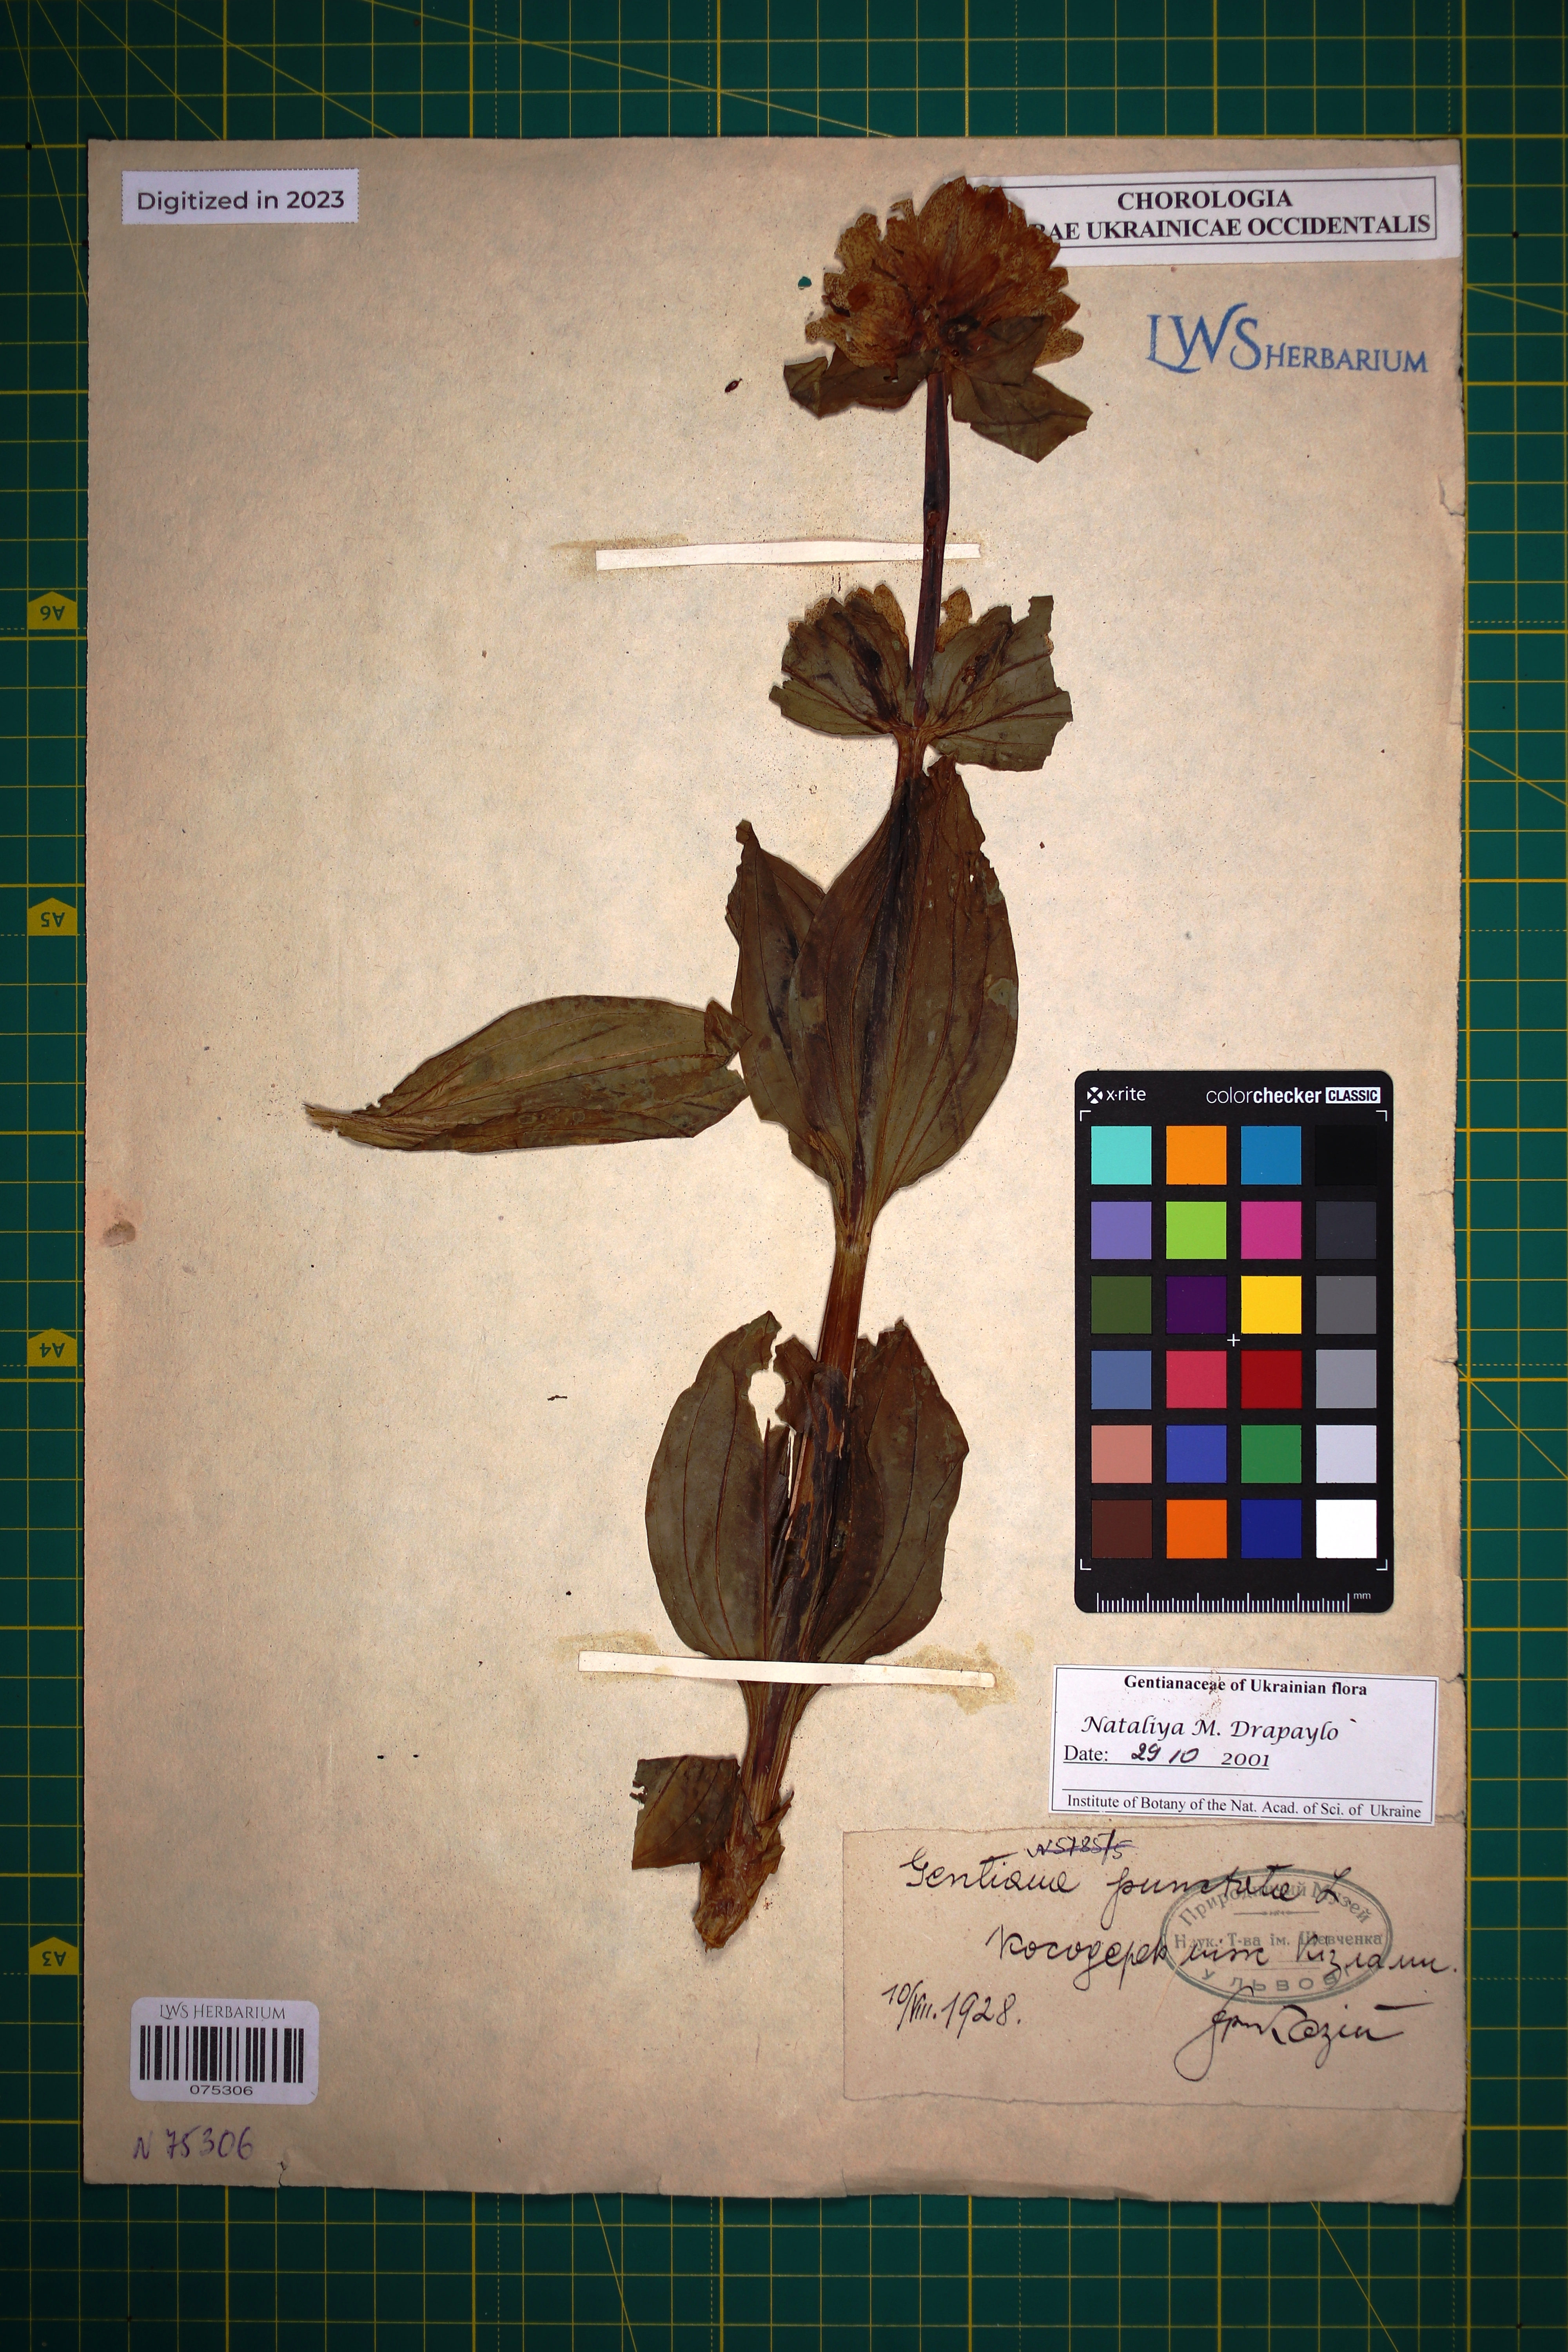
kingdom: Plantae
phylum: Tracheophyta
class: Magnoliopsida
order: Gentianales
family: Gentianaceae
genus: Gentiana
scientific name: Gentiana punctata
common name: Spotted gentian
